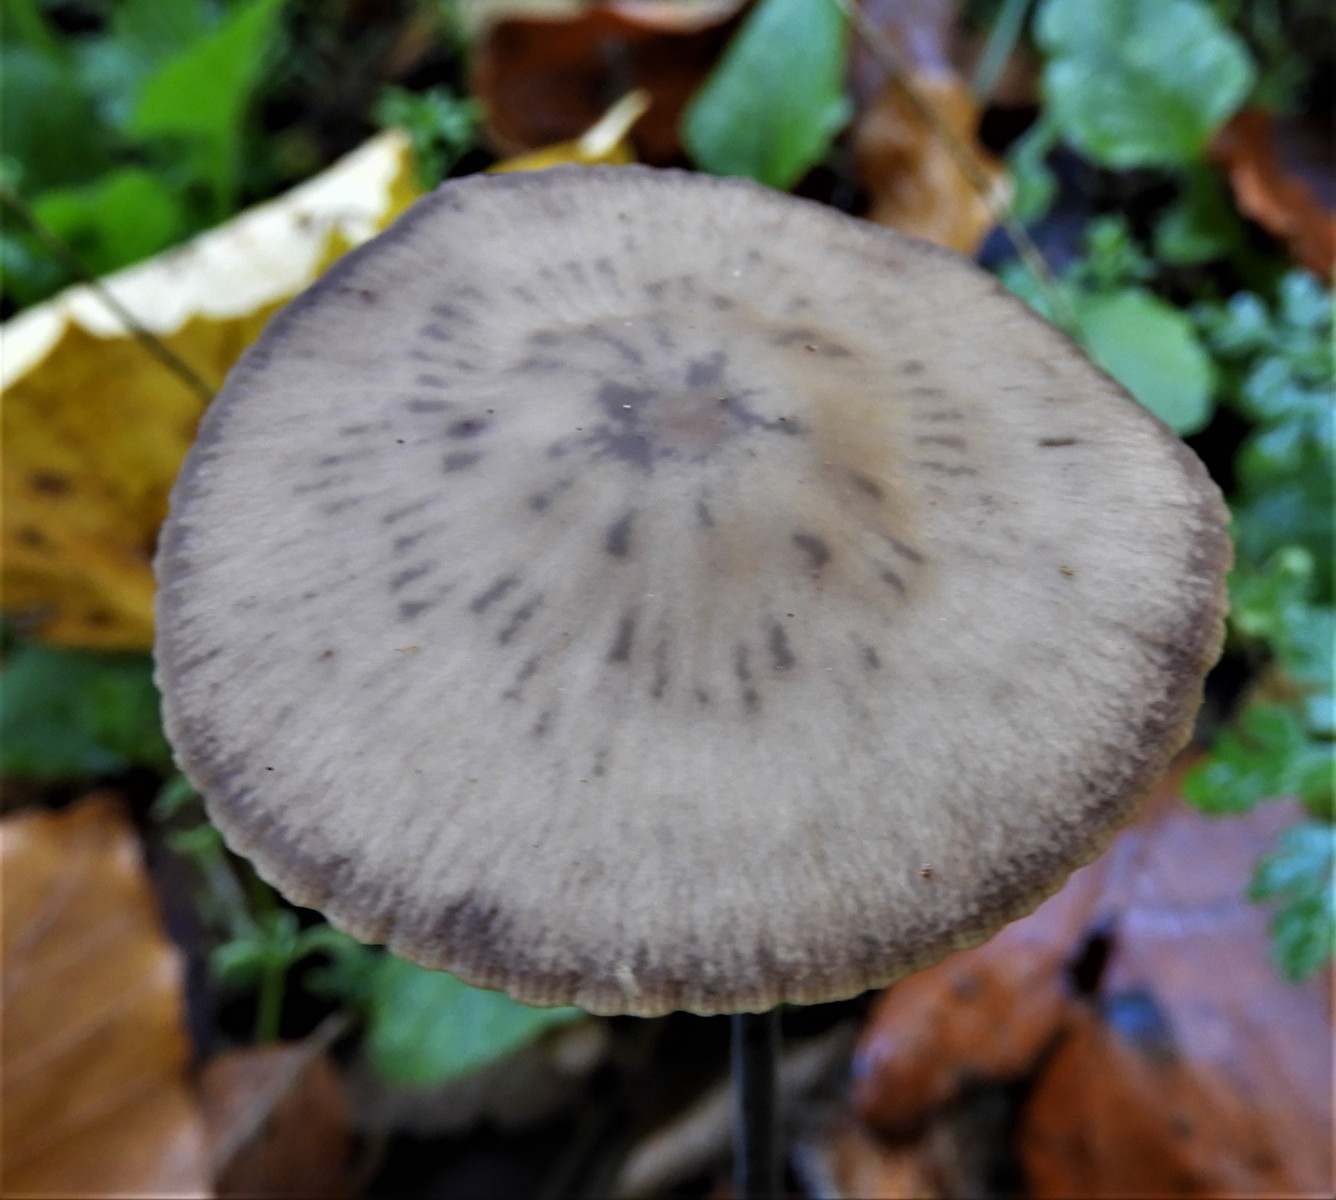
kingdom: Fungi
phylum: Basidiomycota
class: Agaricomycetes
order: Agaricales
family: Omphalotaceae
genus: Mycetinis
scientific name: Mycetinis alliaceus
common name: stor løghat
